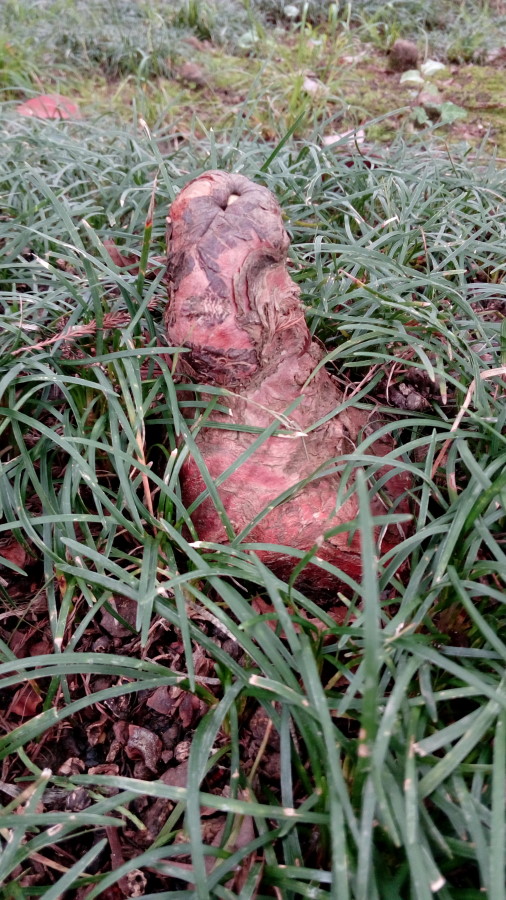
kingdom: Plantae
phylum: Tracheophyta
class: Pinopsida
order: Pinales
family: Cupressaceae
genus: Taxodium
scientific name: Taxodium distichum
